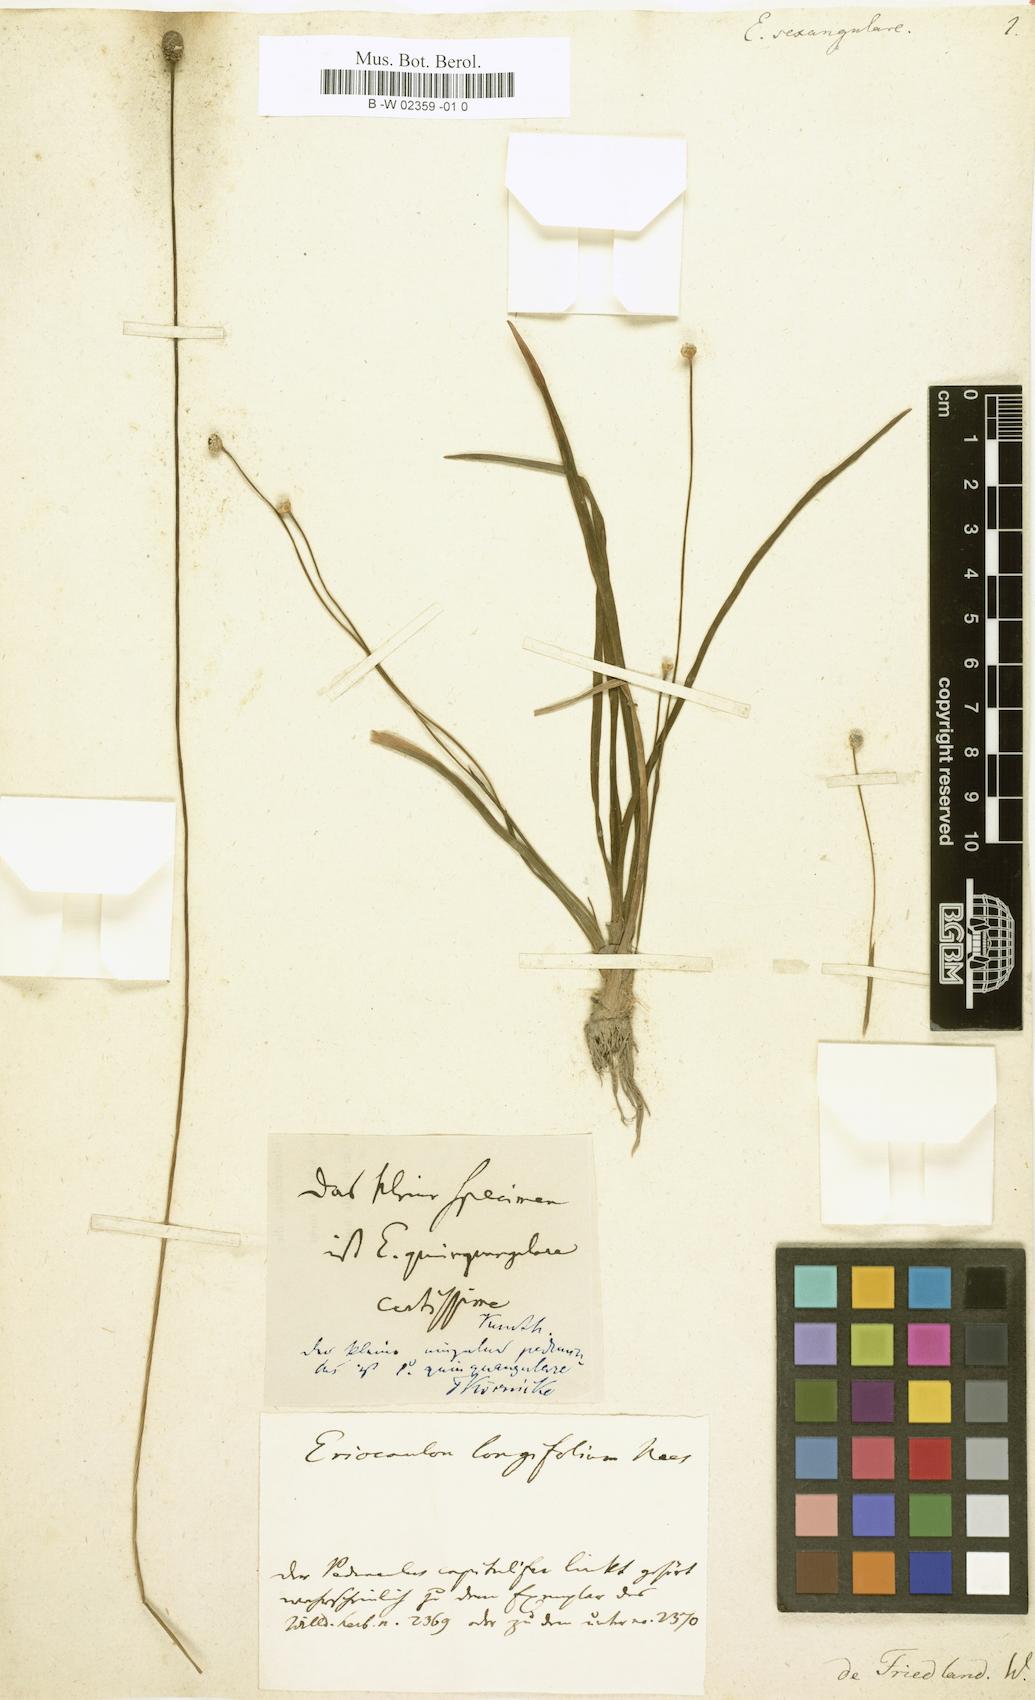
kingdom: Plantae
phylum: Tracheophyta
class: Liliopsida
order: Poales
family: Eriocaulaceae
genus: Eriocaulon
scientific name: Eriocaulon sexangulare
